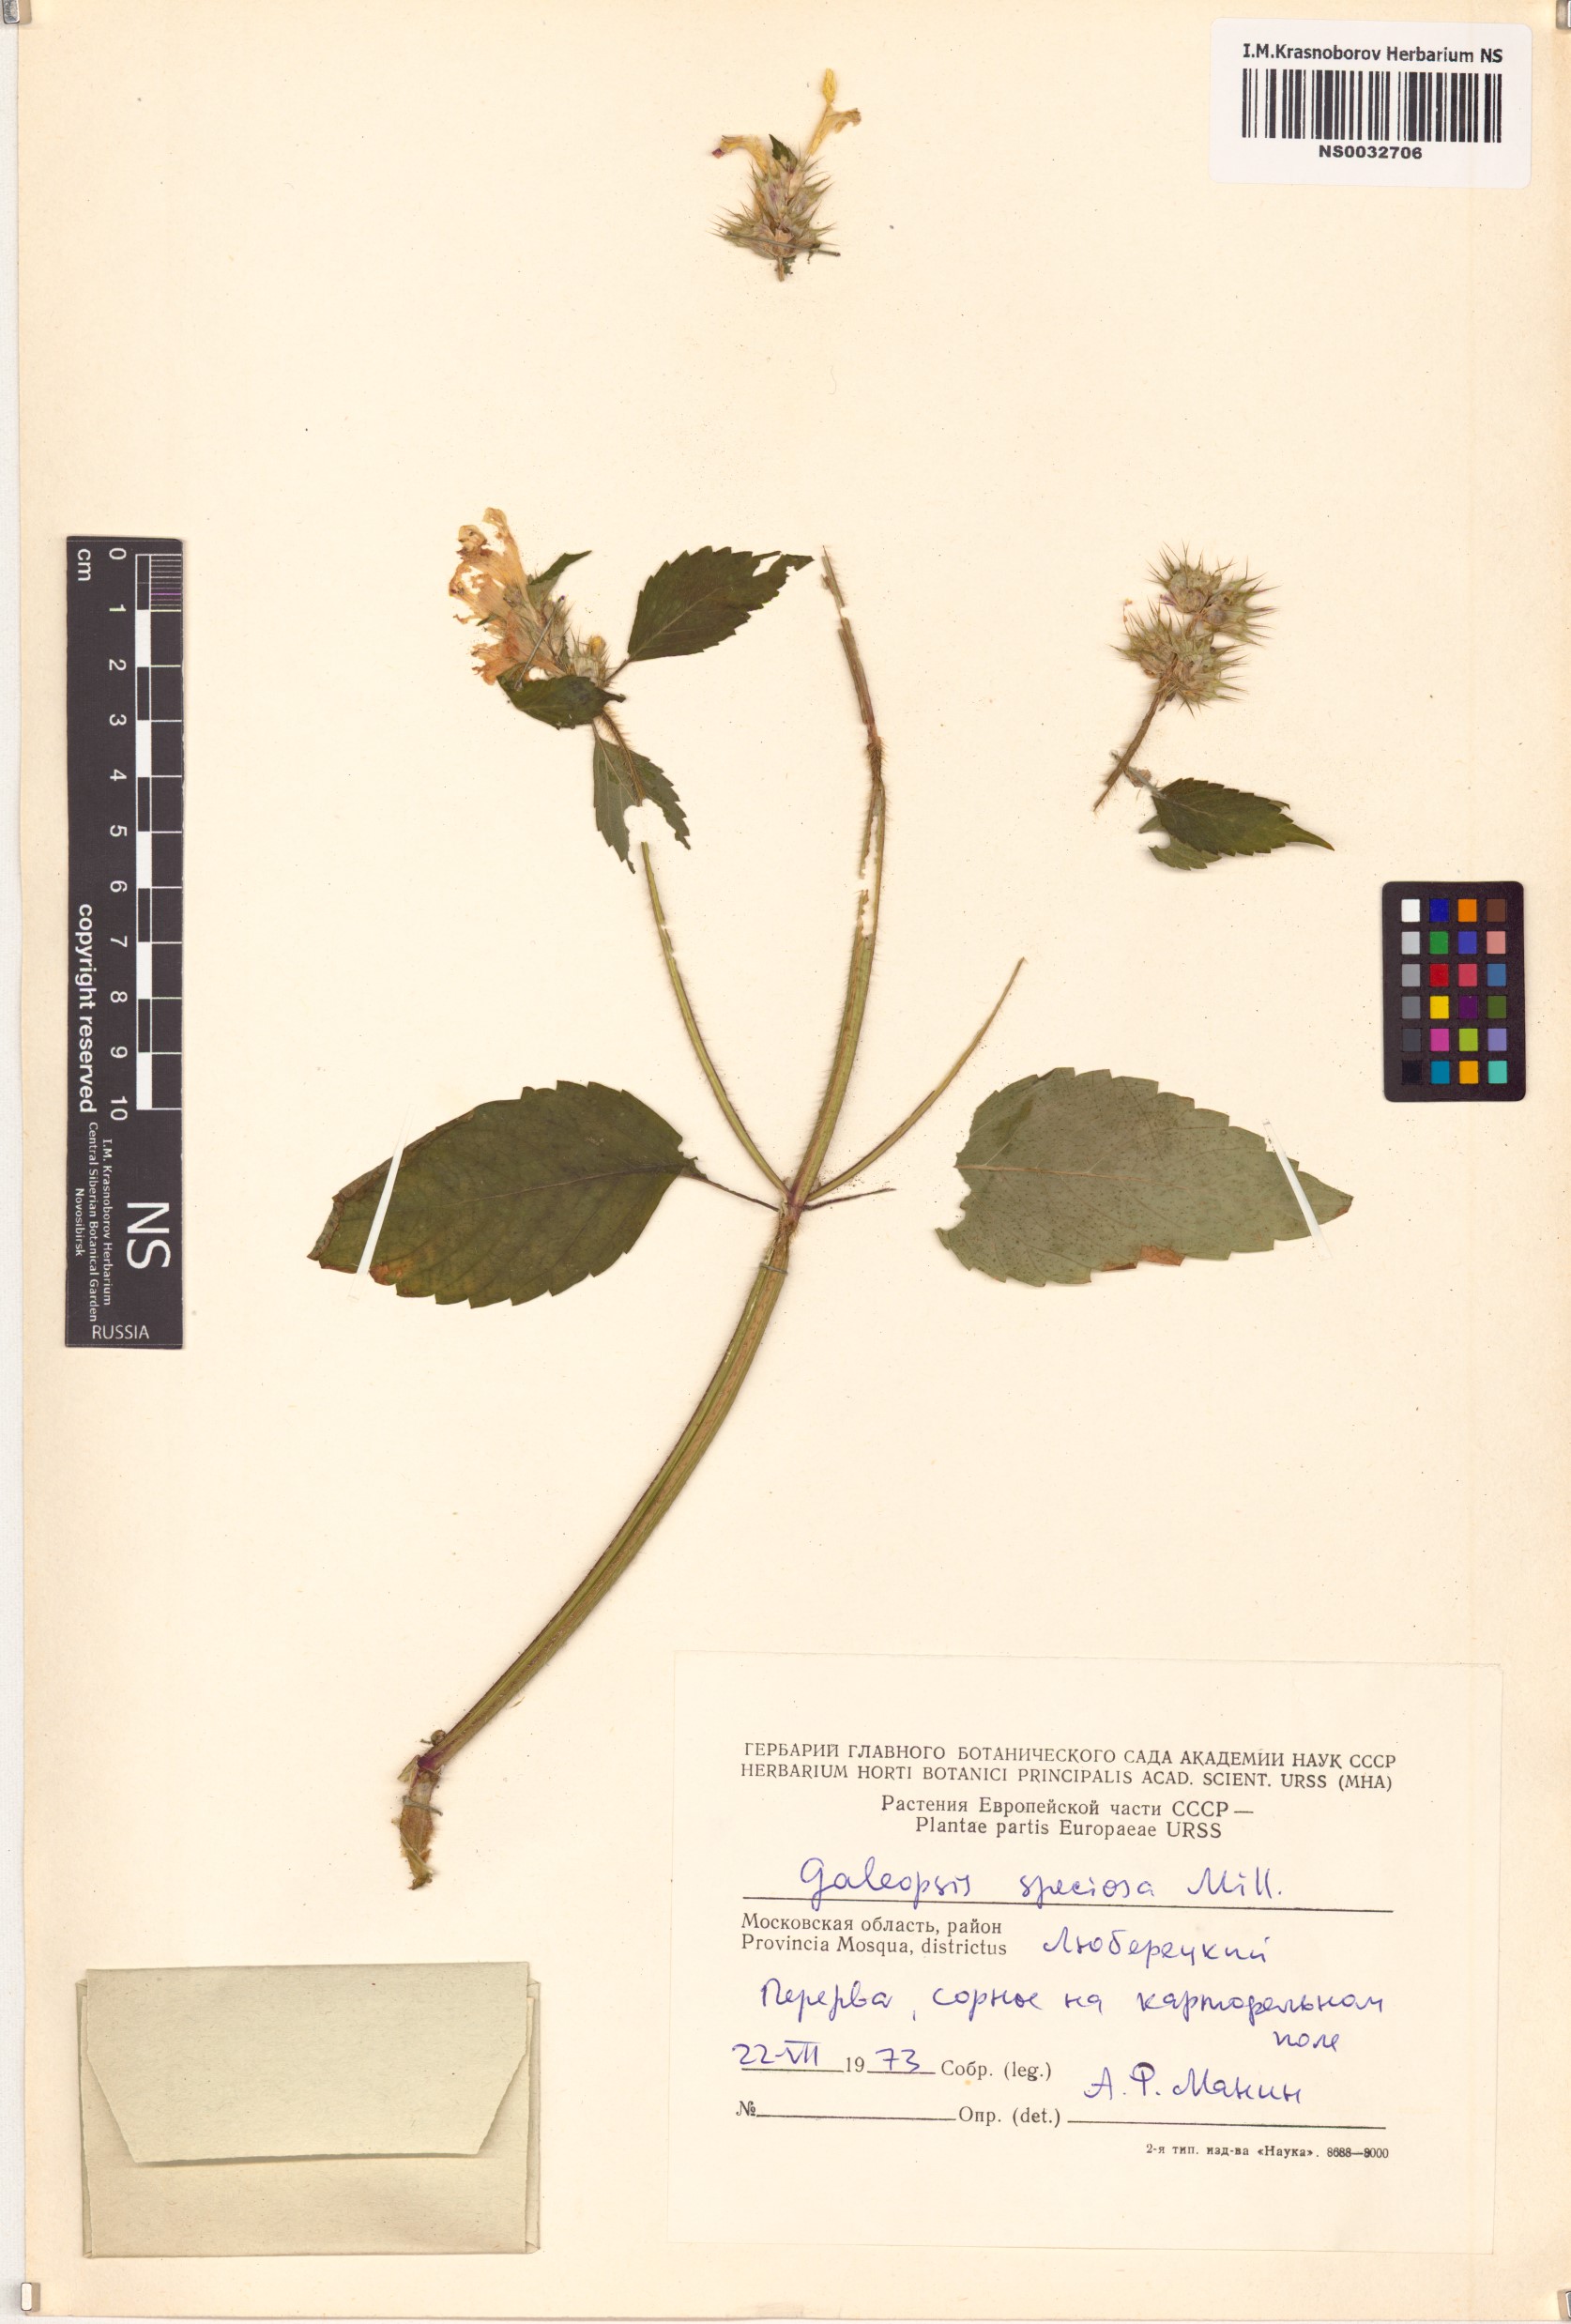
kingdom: Plantae
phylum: Tracheophyta
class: Magnoliopsida
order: Lamiales
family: Lamiaceae
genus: Galeopsis
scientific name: Galeopsis speciosa
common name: Large-flowered hemp-nettle
